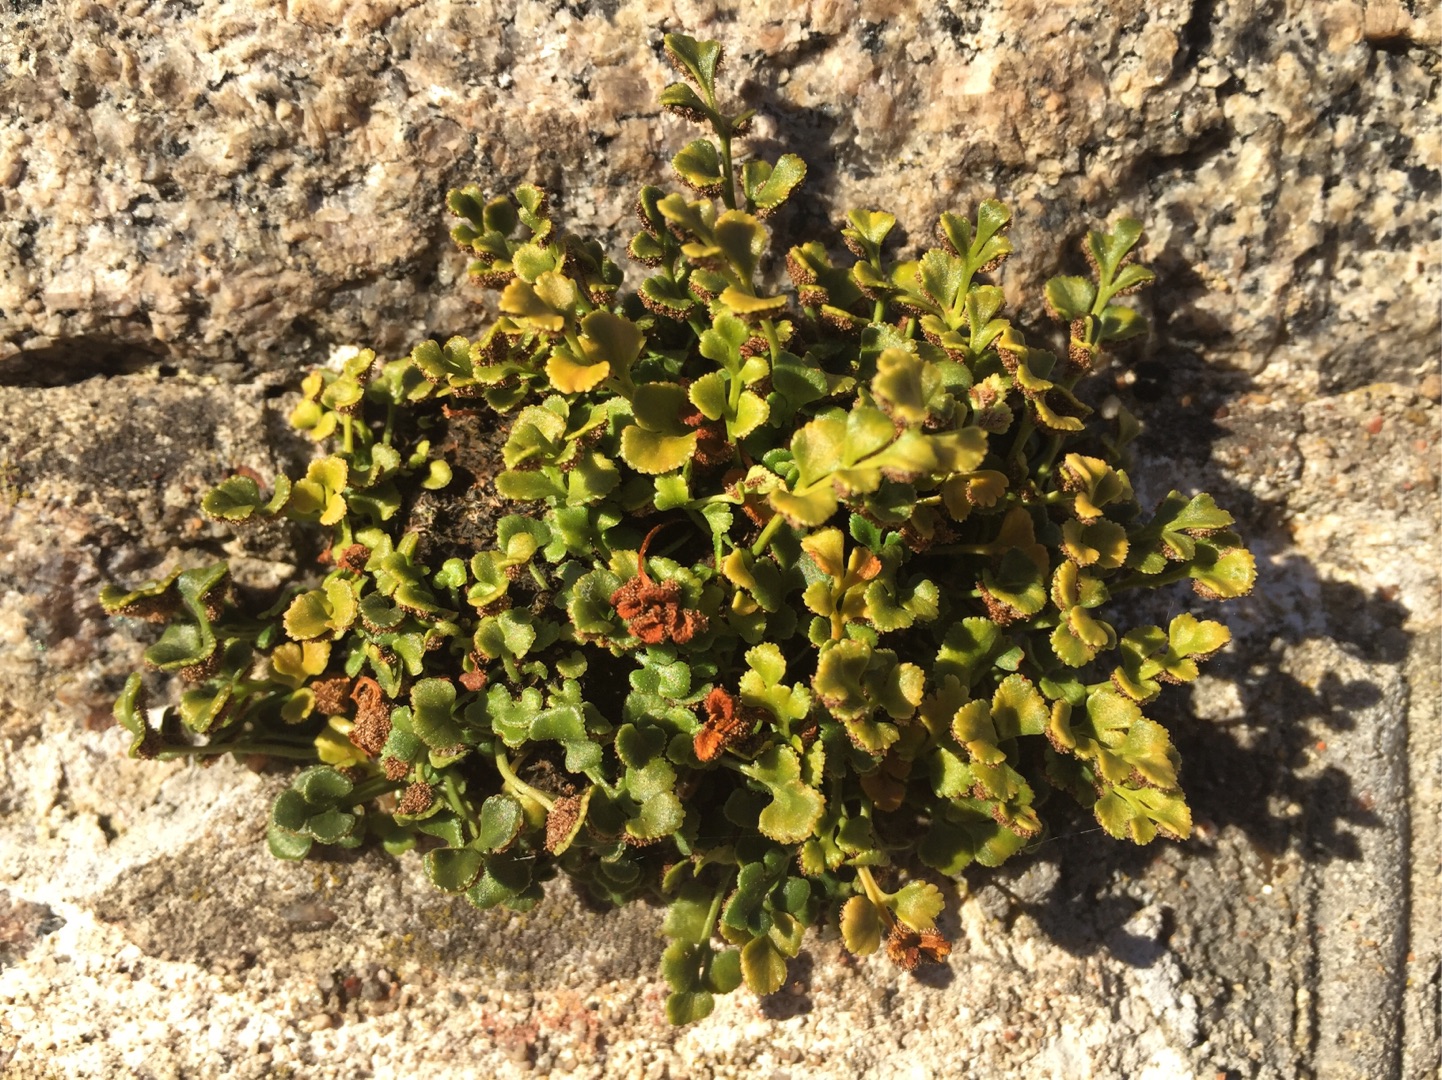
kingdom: Plantae
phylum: Tracheophyta
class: Polypodiopsida
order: Polypodiales
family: Aspleniaceae
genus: Asplenium
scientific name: Asplenium ruta-muraria
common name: Murrude
